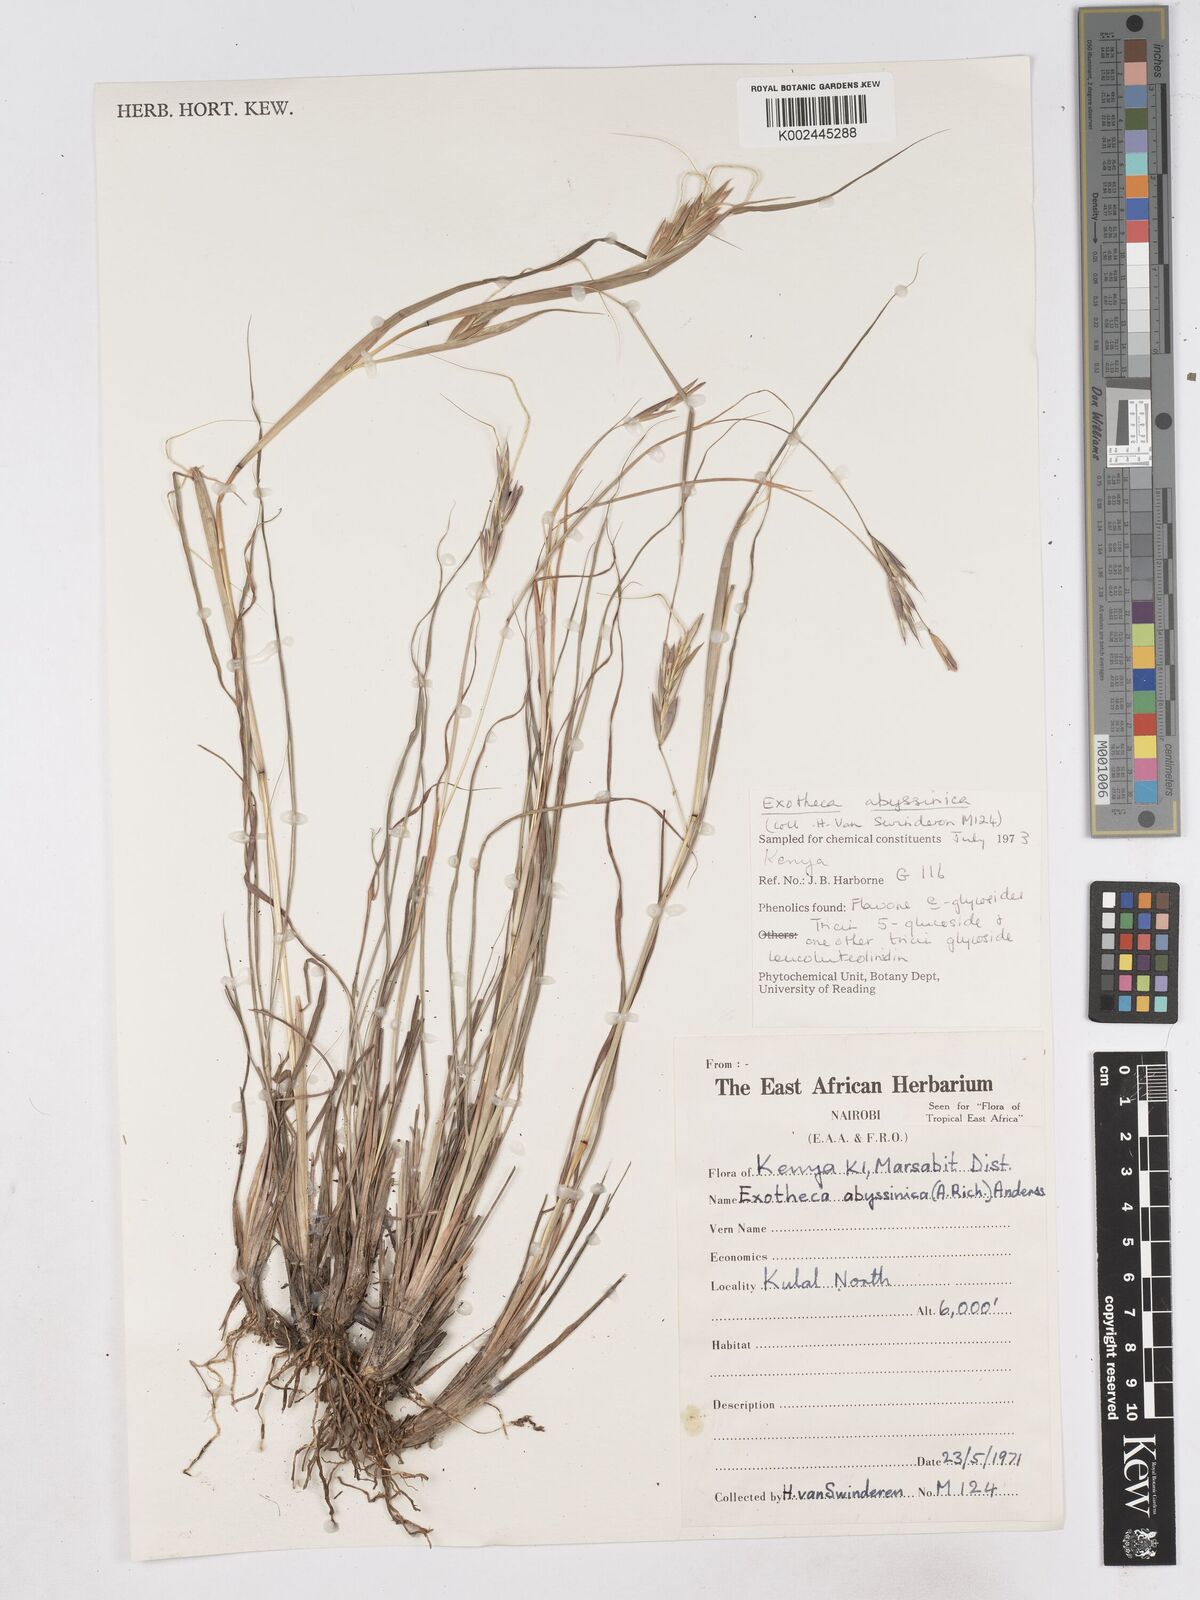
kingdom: Plantae
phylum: Tracheophyta
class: Liliopsida
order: Poales
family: Poaceae
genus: Exotheca
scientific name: Exotheca abyssinica
